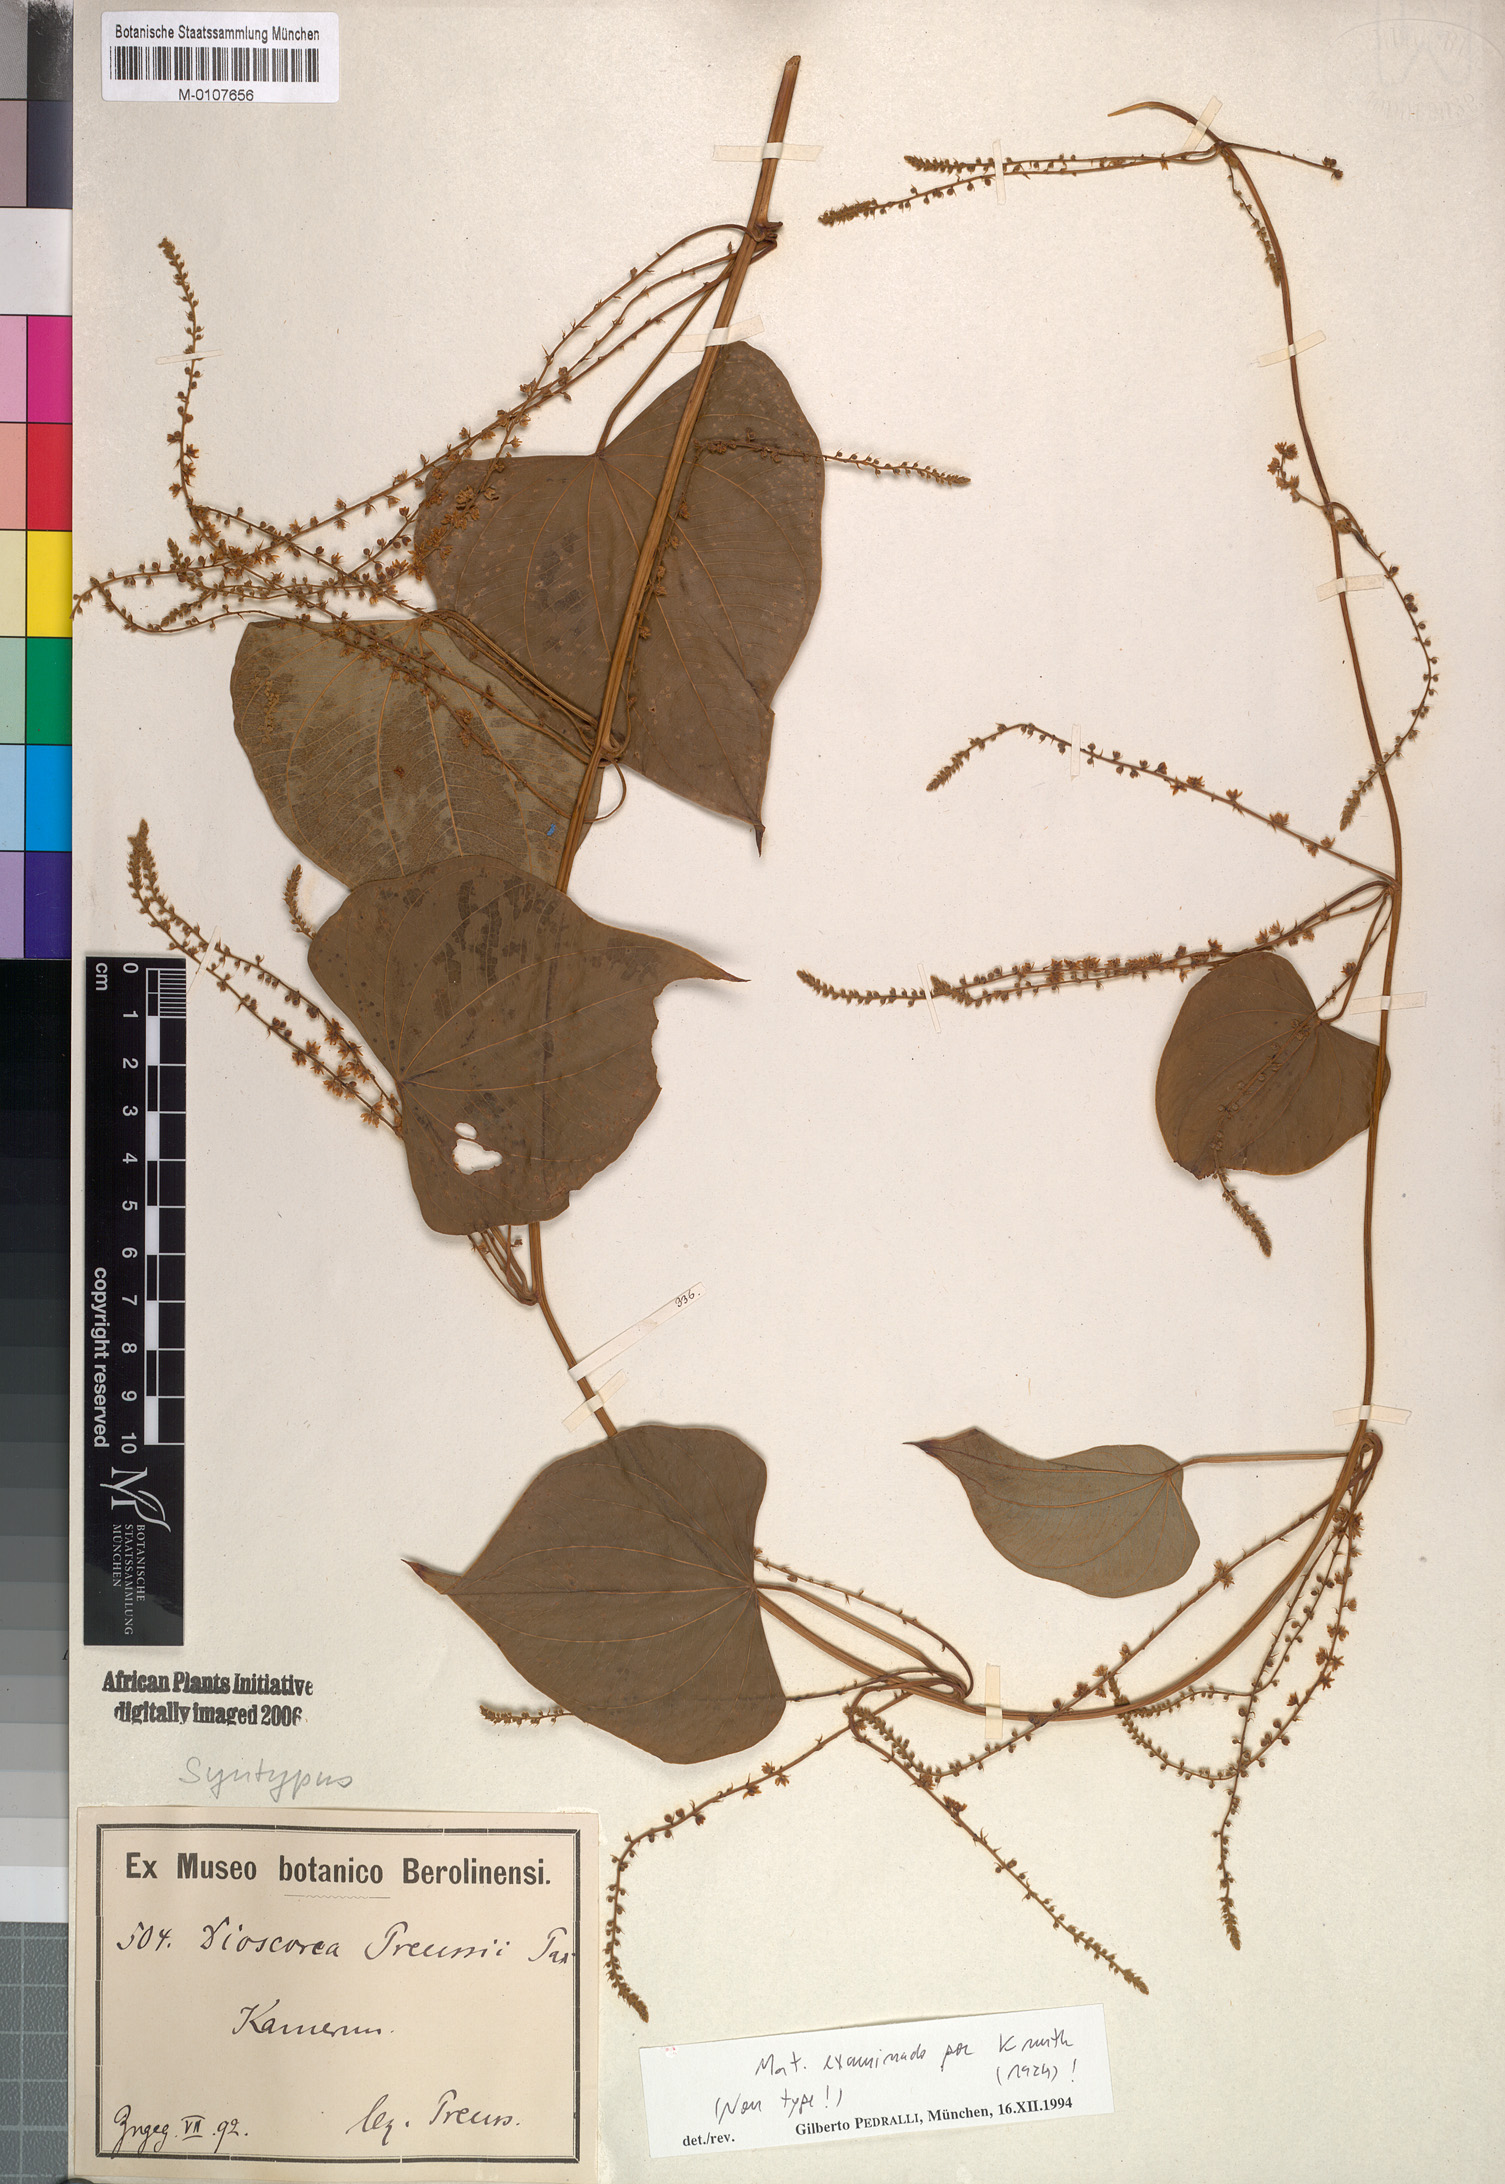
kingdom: Plantae
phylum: Tracheophyta
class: Liliopsida
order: Dioscoreales
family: Dioscoreaceae
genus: Dioscorea
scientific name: Dioscorea preussii
